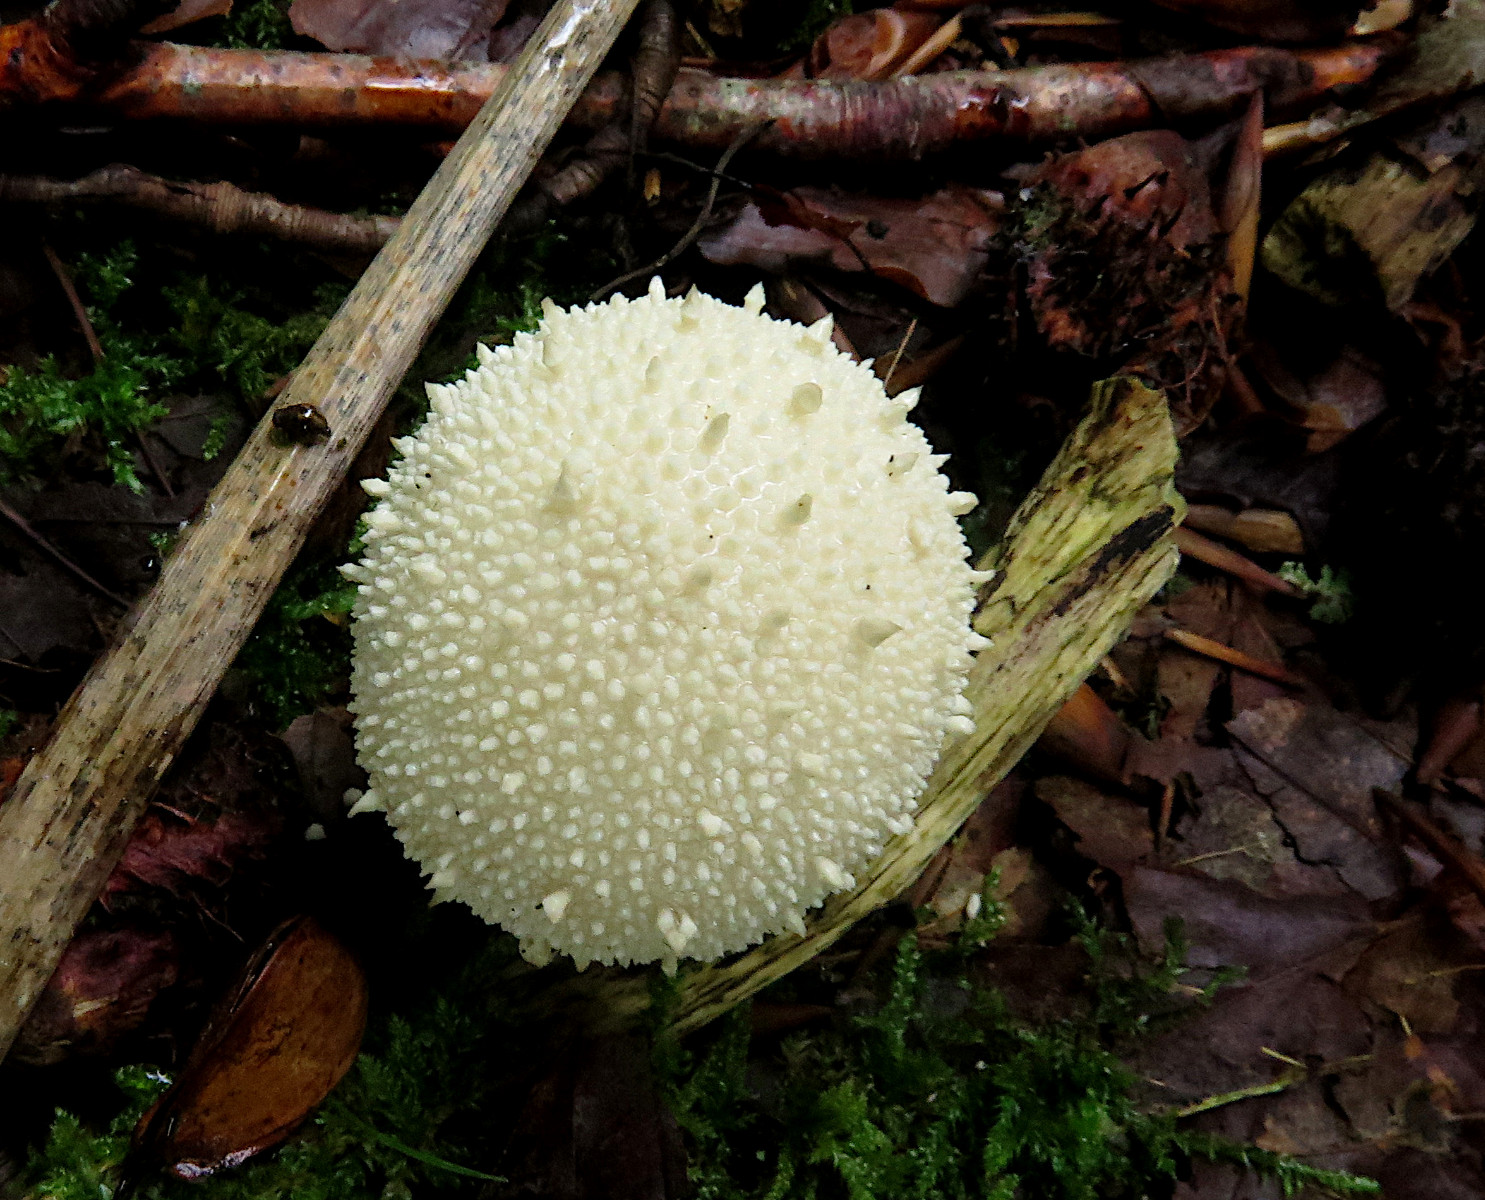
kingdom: Fungi
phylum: Basidiomycota
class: Agaricomycetes
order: Agaricales
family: Lycoperdaceae
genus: Lycoperdon
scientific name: Lycoperdon perlatum
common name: krystal-støvbold
